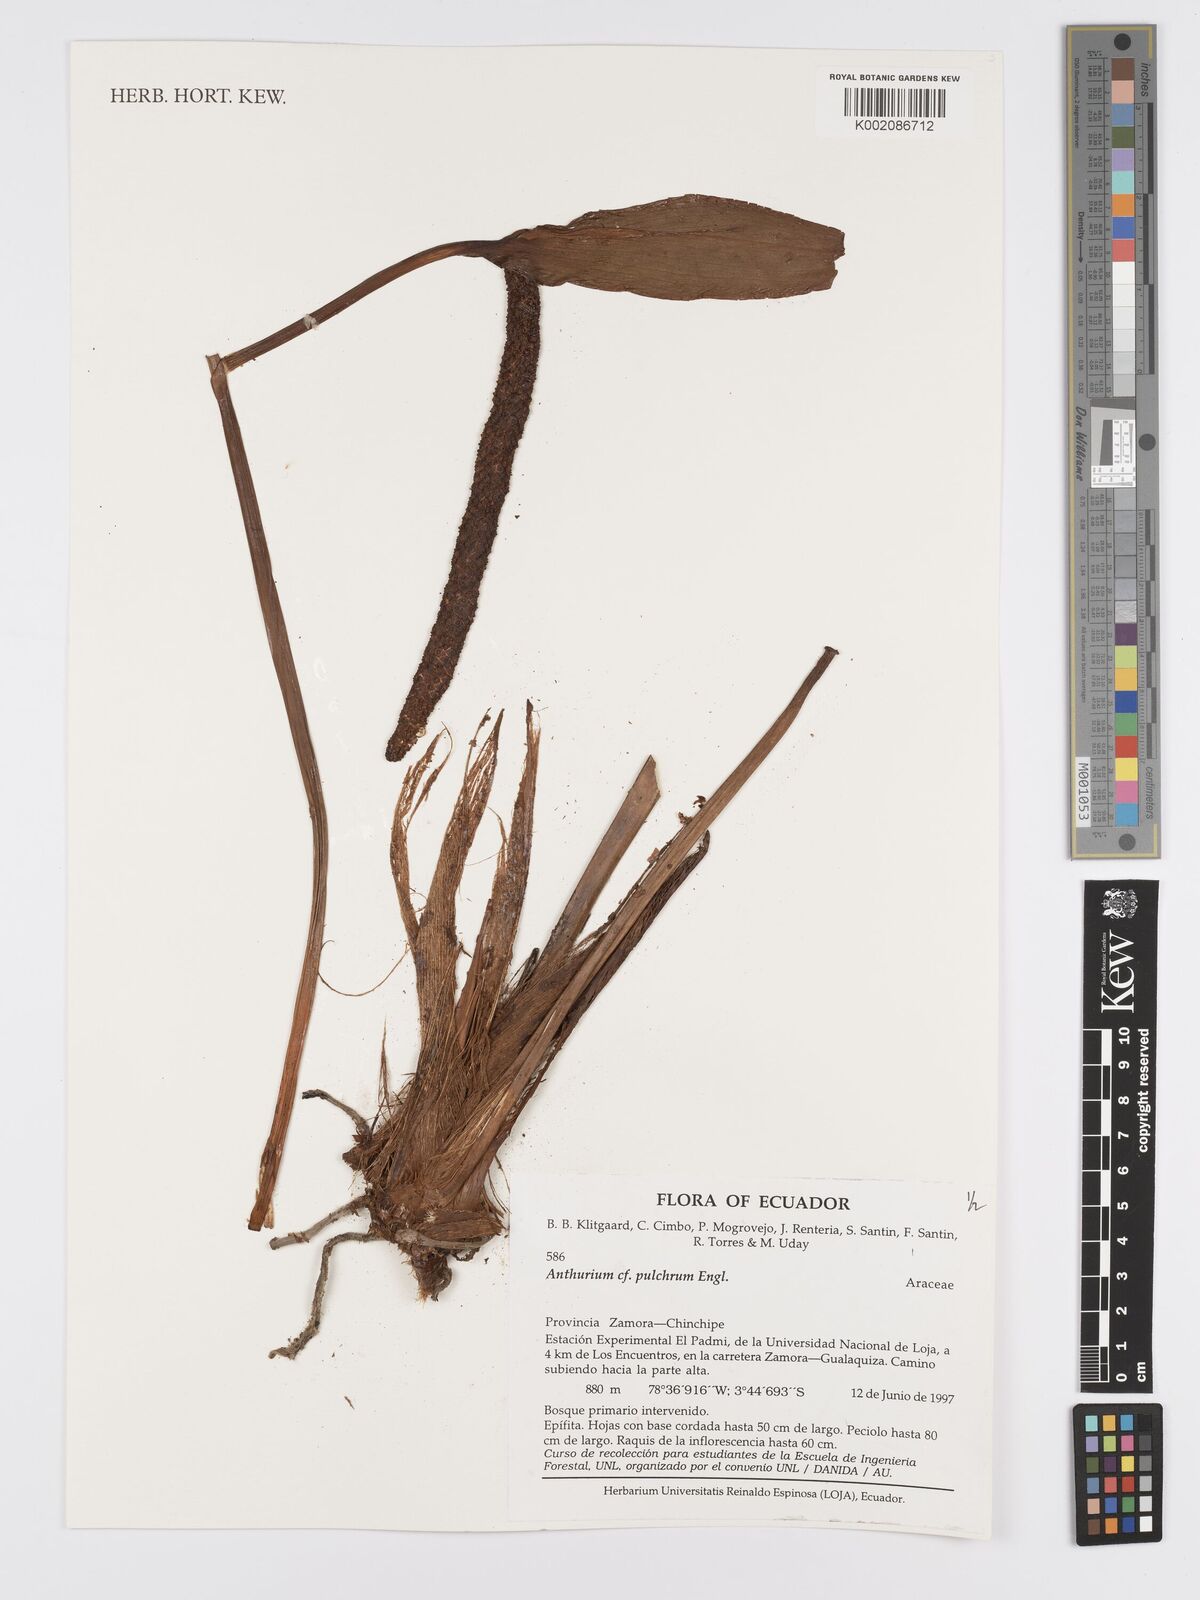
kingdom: Plantae
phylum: Tracheophyta
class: Liliopsida
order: Alismatales
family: Araceae
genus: Anthurium
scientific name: Anthurium oxybelium
